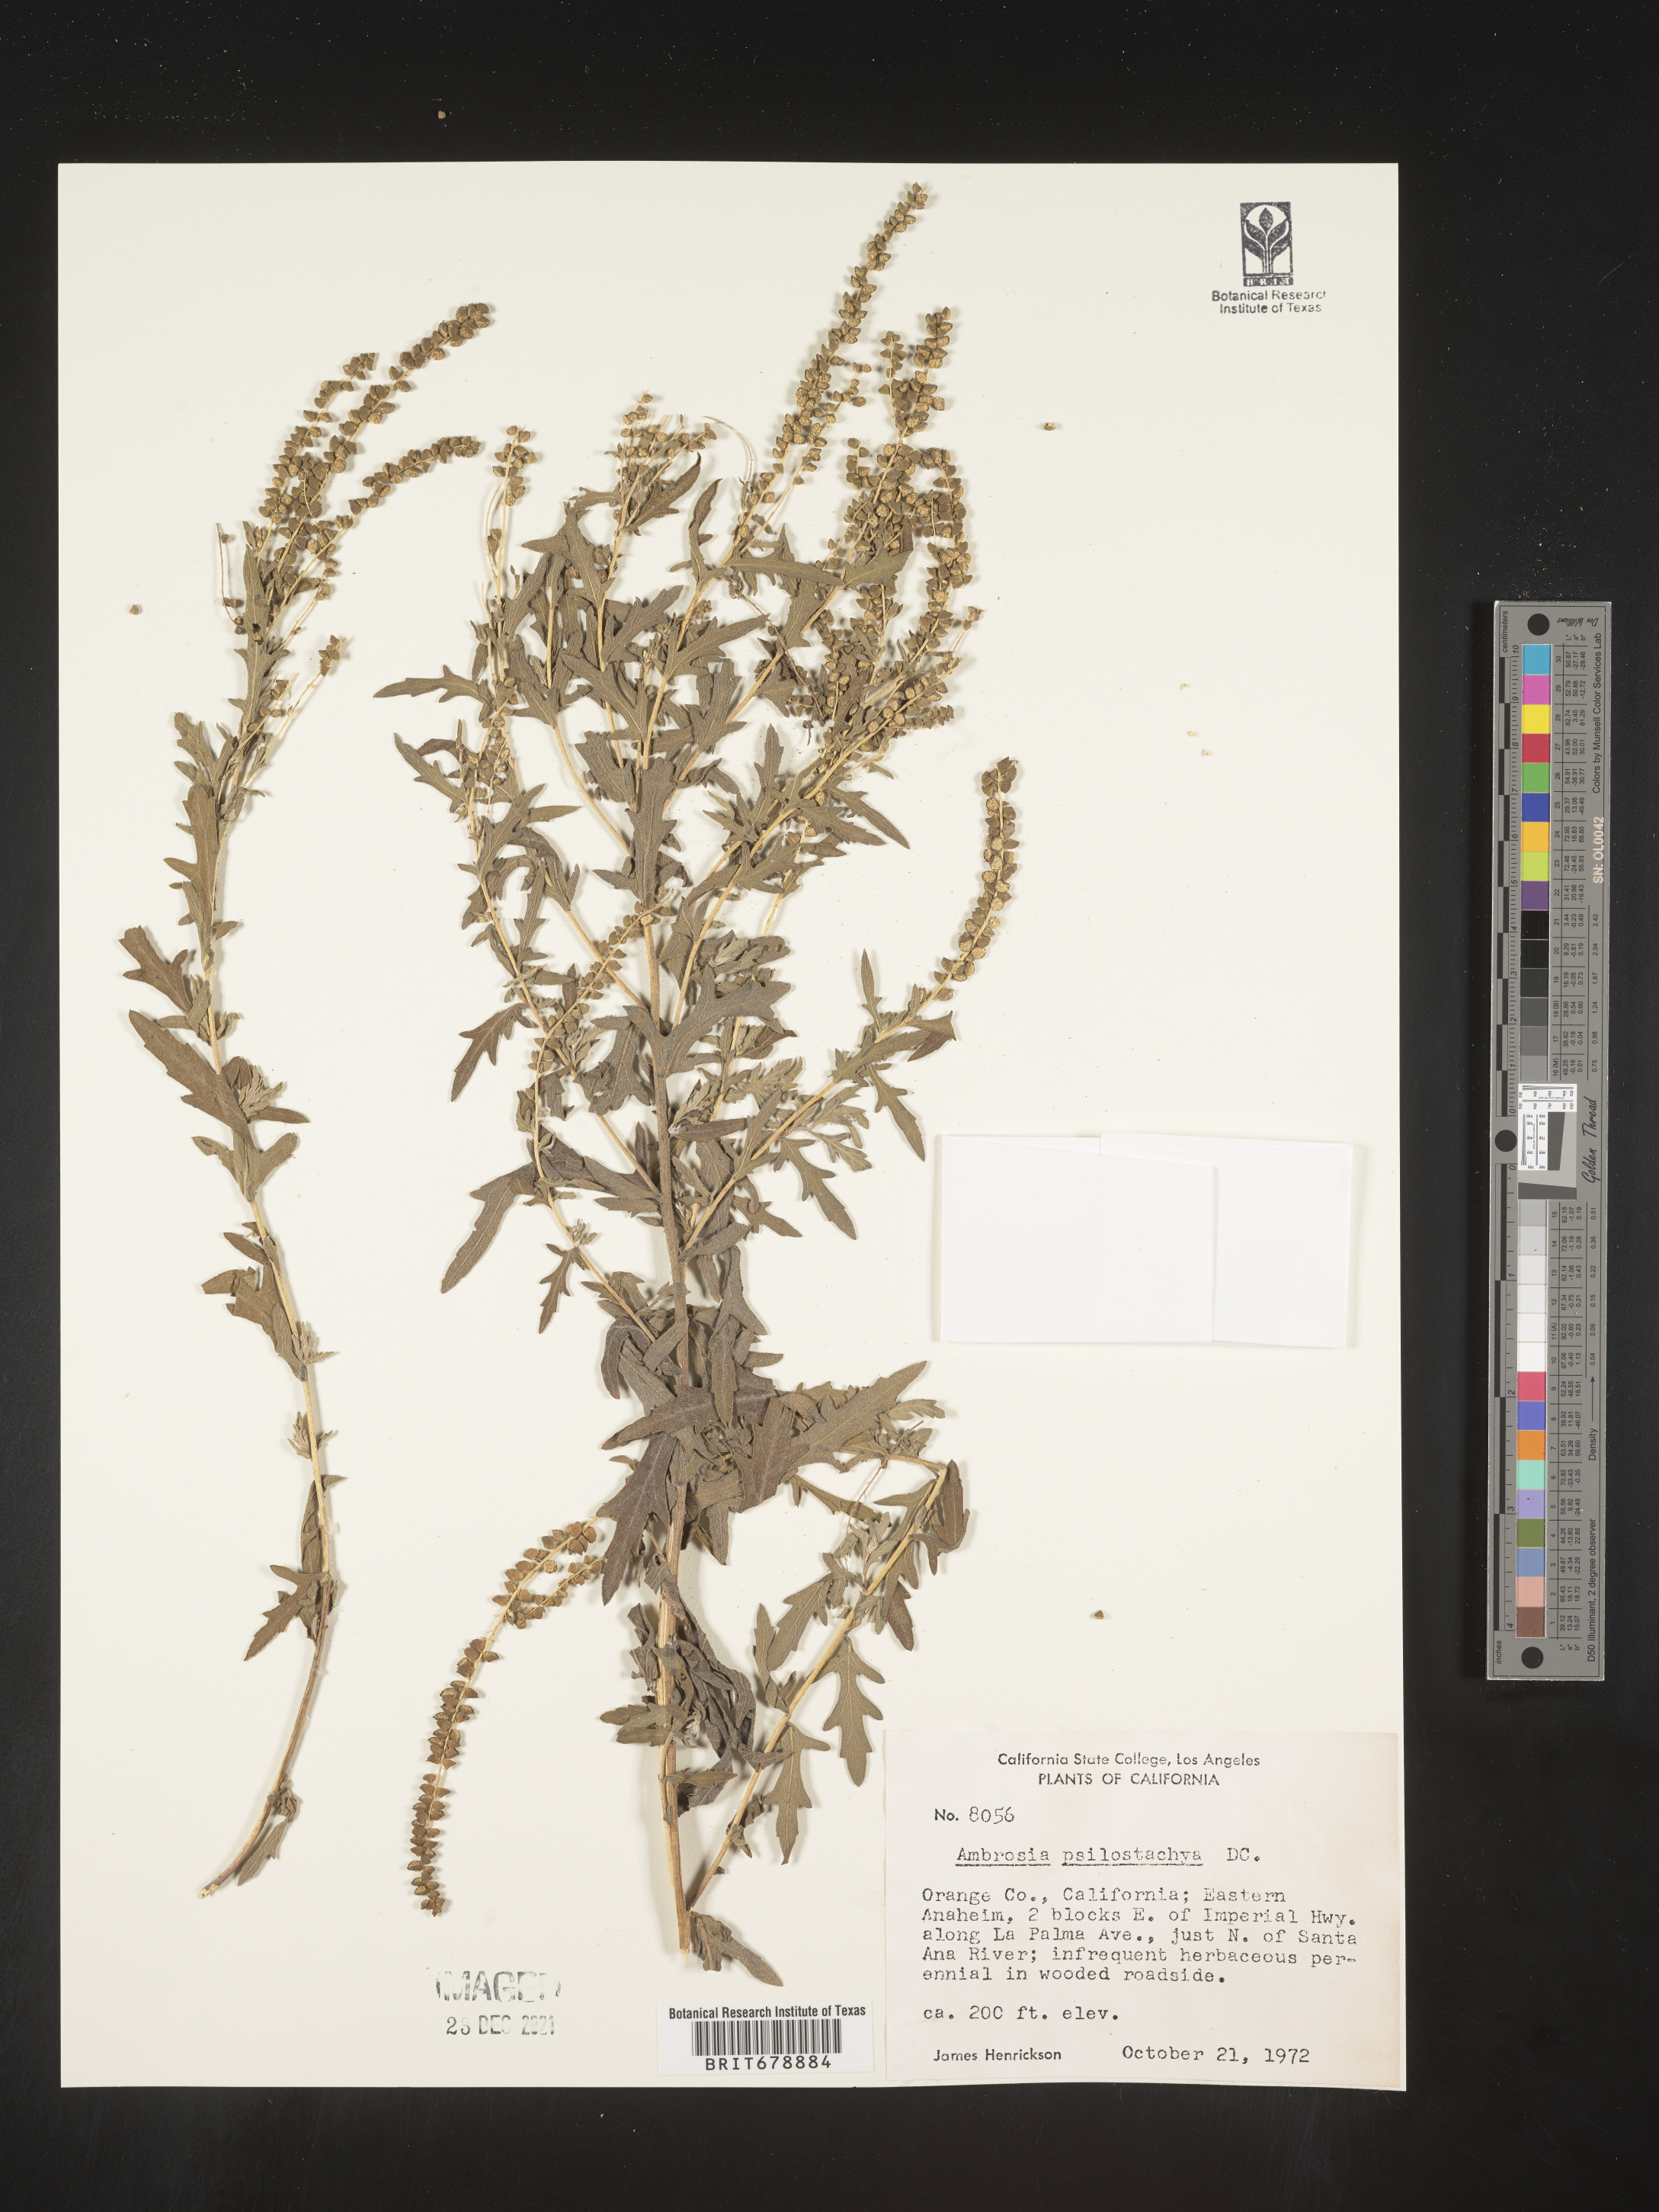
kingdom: Plantae
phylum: Tracheophyta
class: Magnoliopsida
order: Asterales
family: Asteraceae
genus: Ambrosia
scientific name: Ambrosia psilostachya
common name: Perennial ragweed
